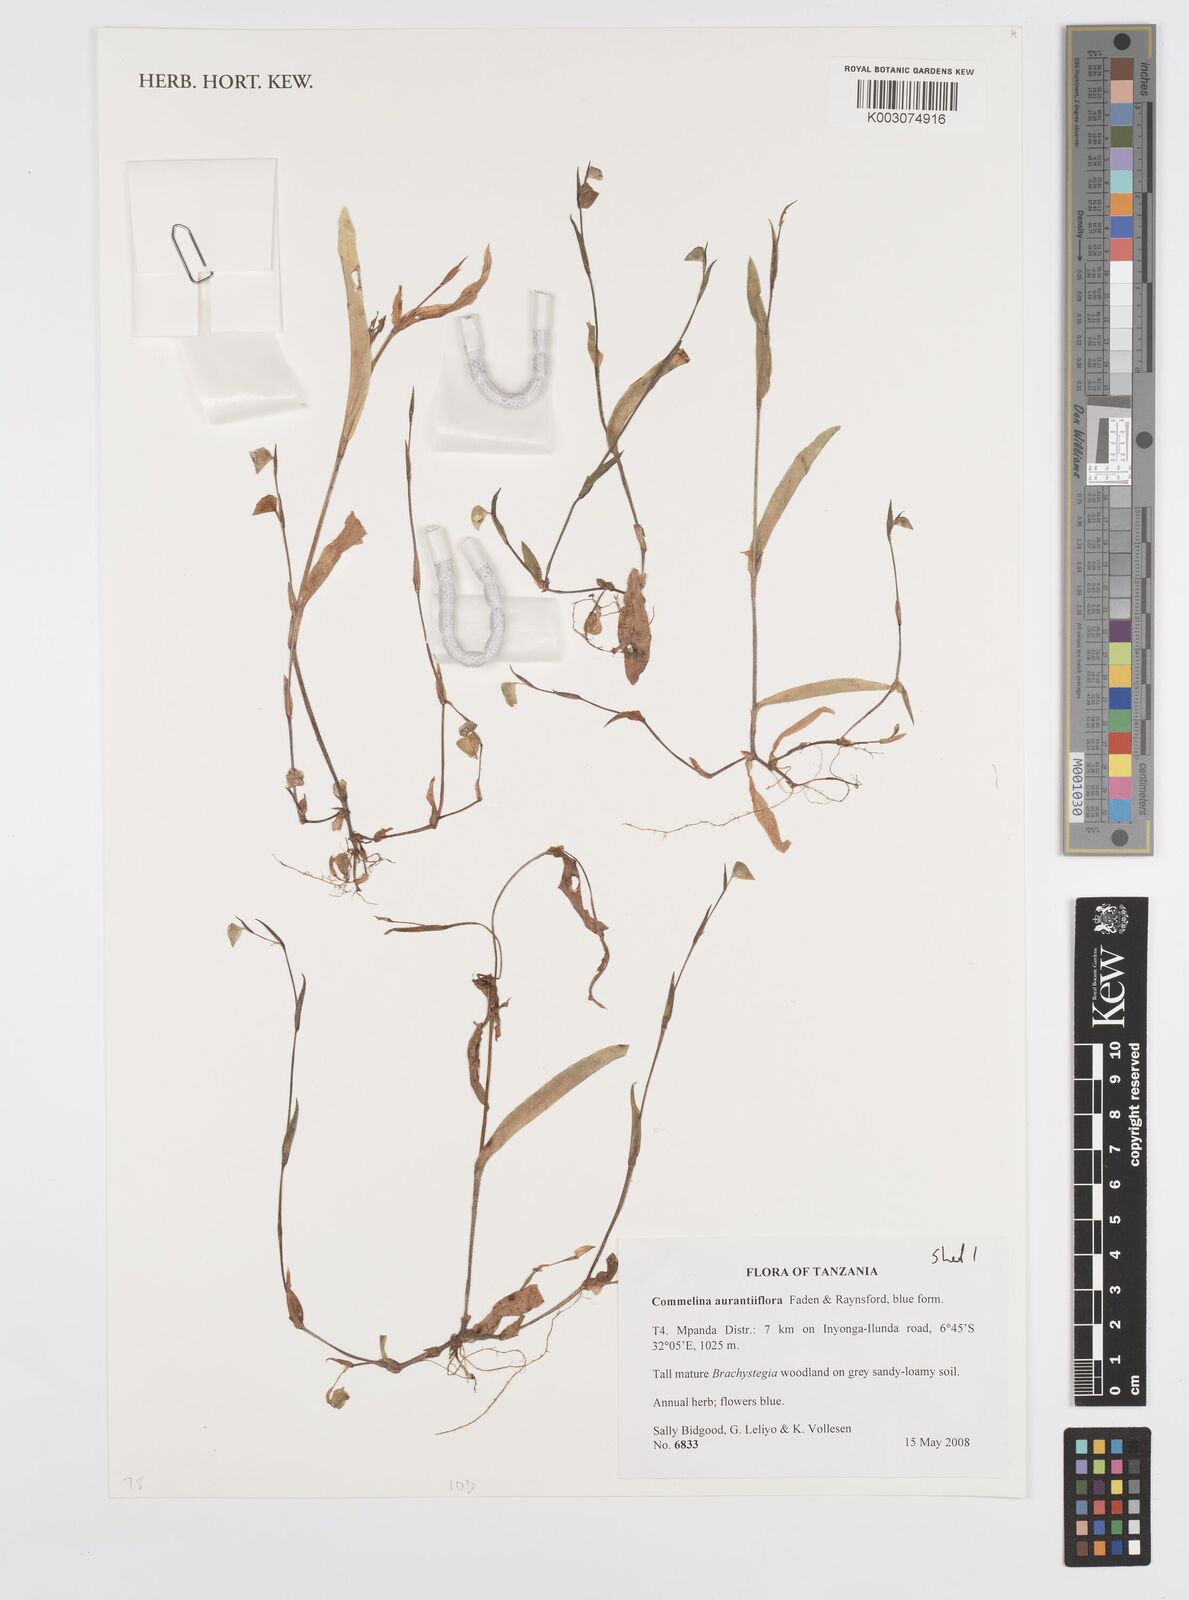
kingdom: Plantae
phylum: Tracheophyta
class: Liliopsida
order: Commelinales
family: Commelinaceae
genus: Commelina
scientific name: Commelina aurantiiflora
